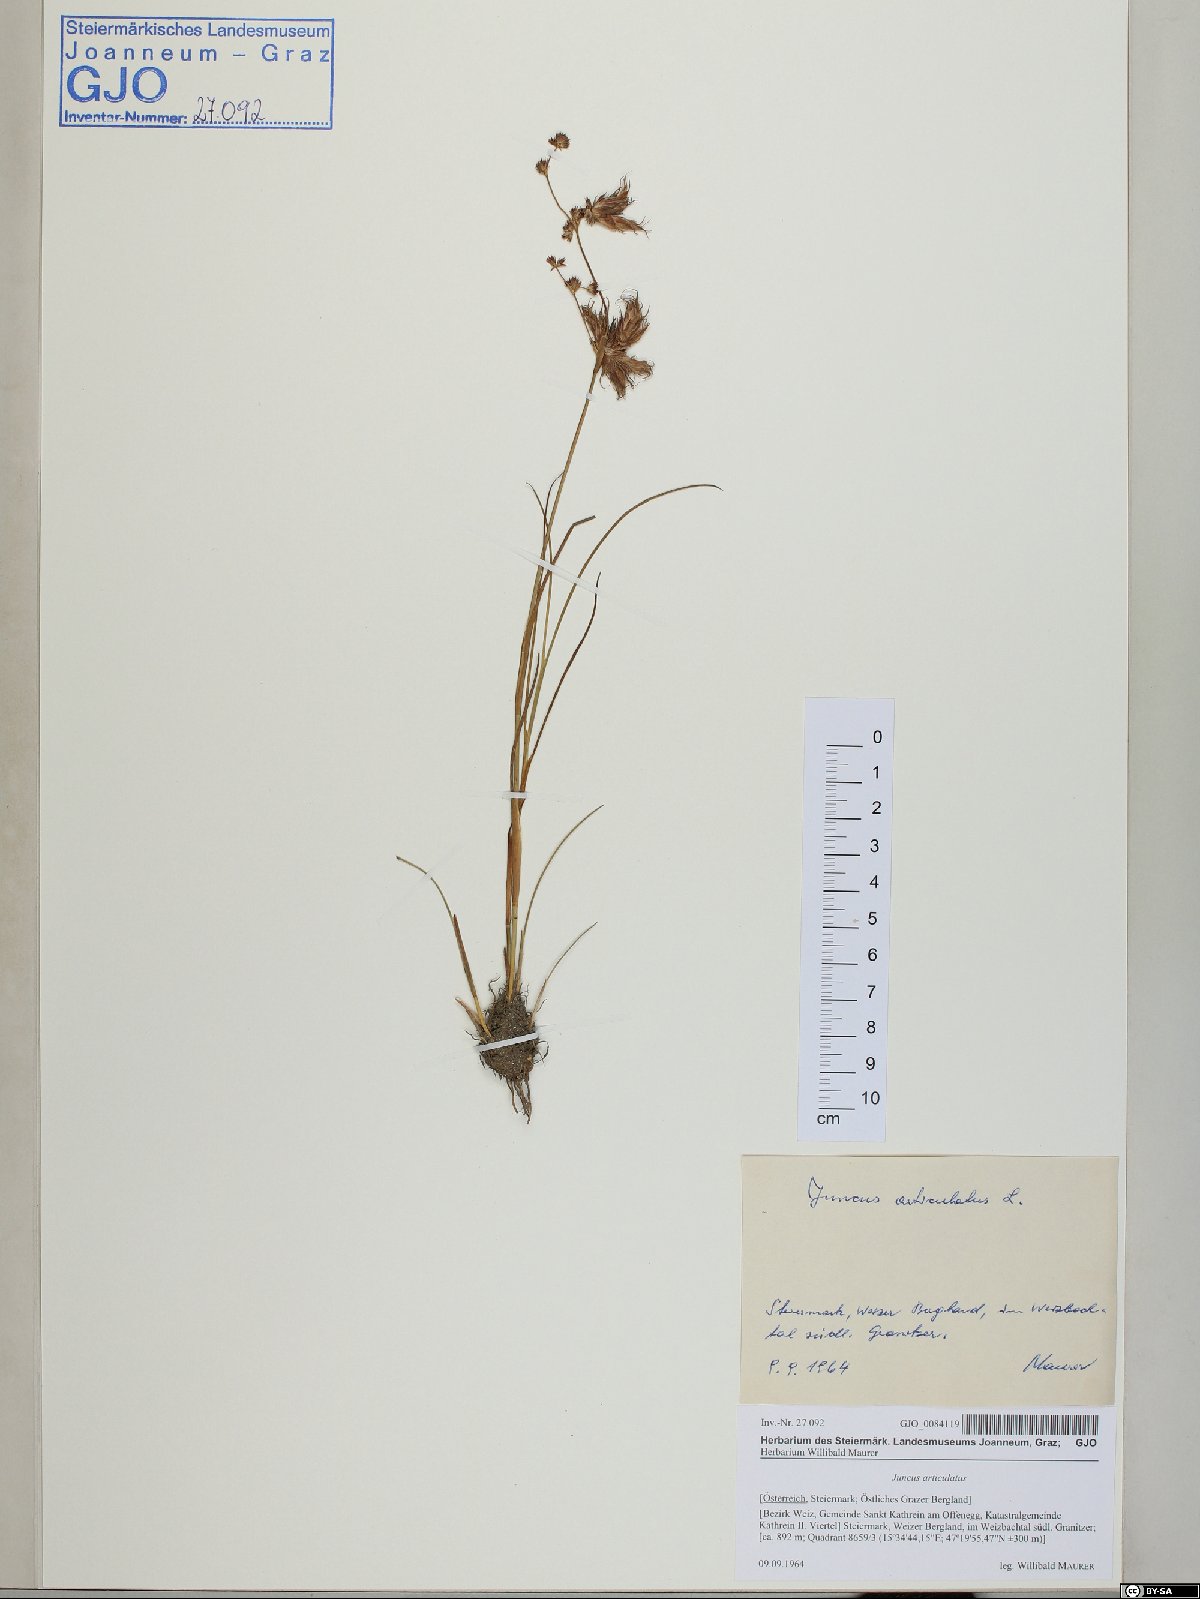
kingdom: Plantae
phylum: Tracheophyta
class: Liliopsida
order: Poales
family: Juncaceae
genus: Juncus
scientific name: Juncus articulatus
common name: Jointed rush
